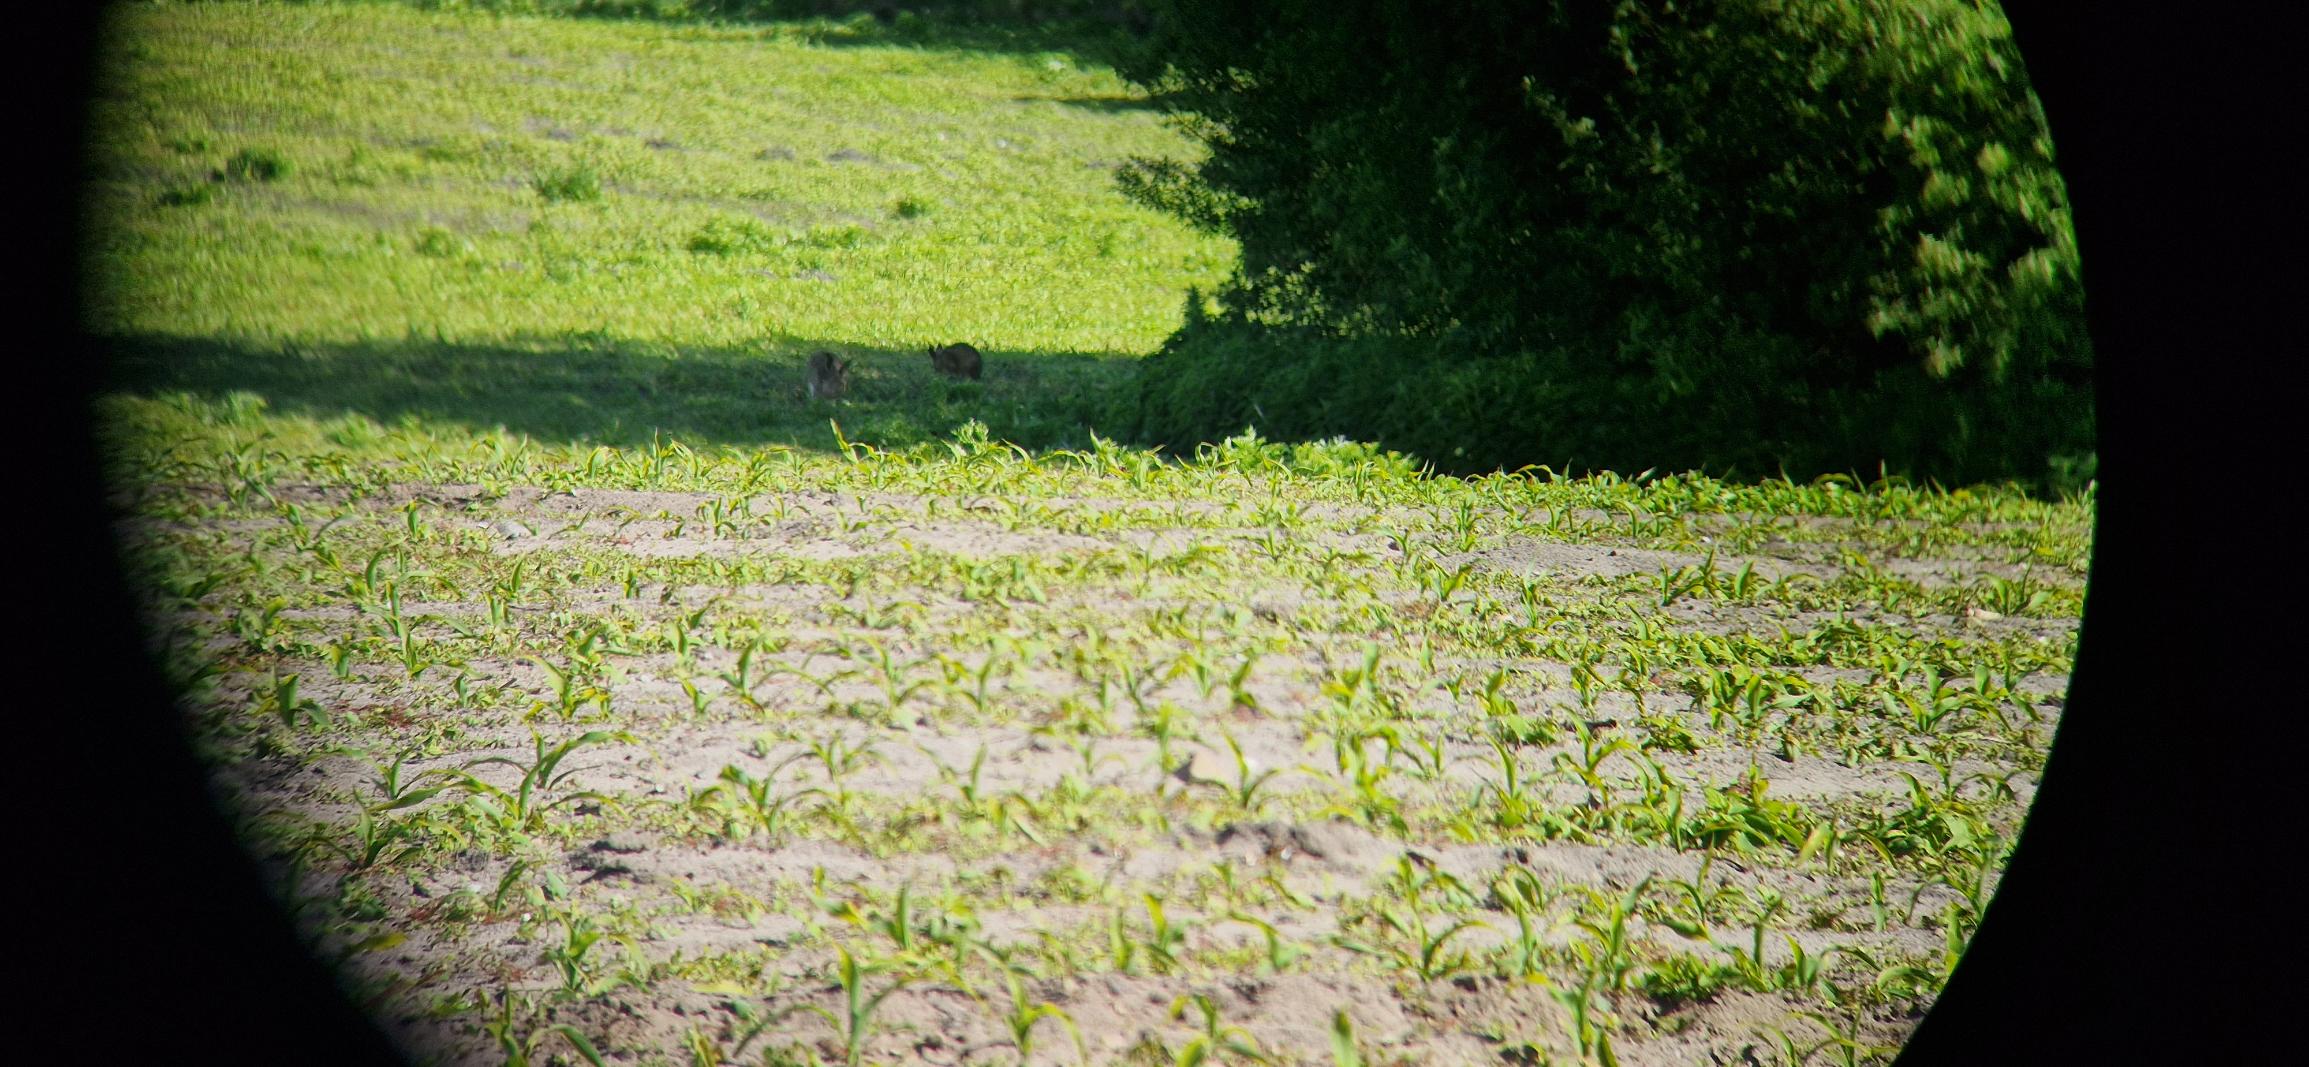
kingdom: Animalia
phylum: Chordata
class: Mammalia
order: Lagomorpha
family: Leporidae
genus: Lepus
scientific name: Lepus europaeus
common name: Hare
